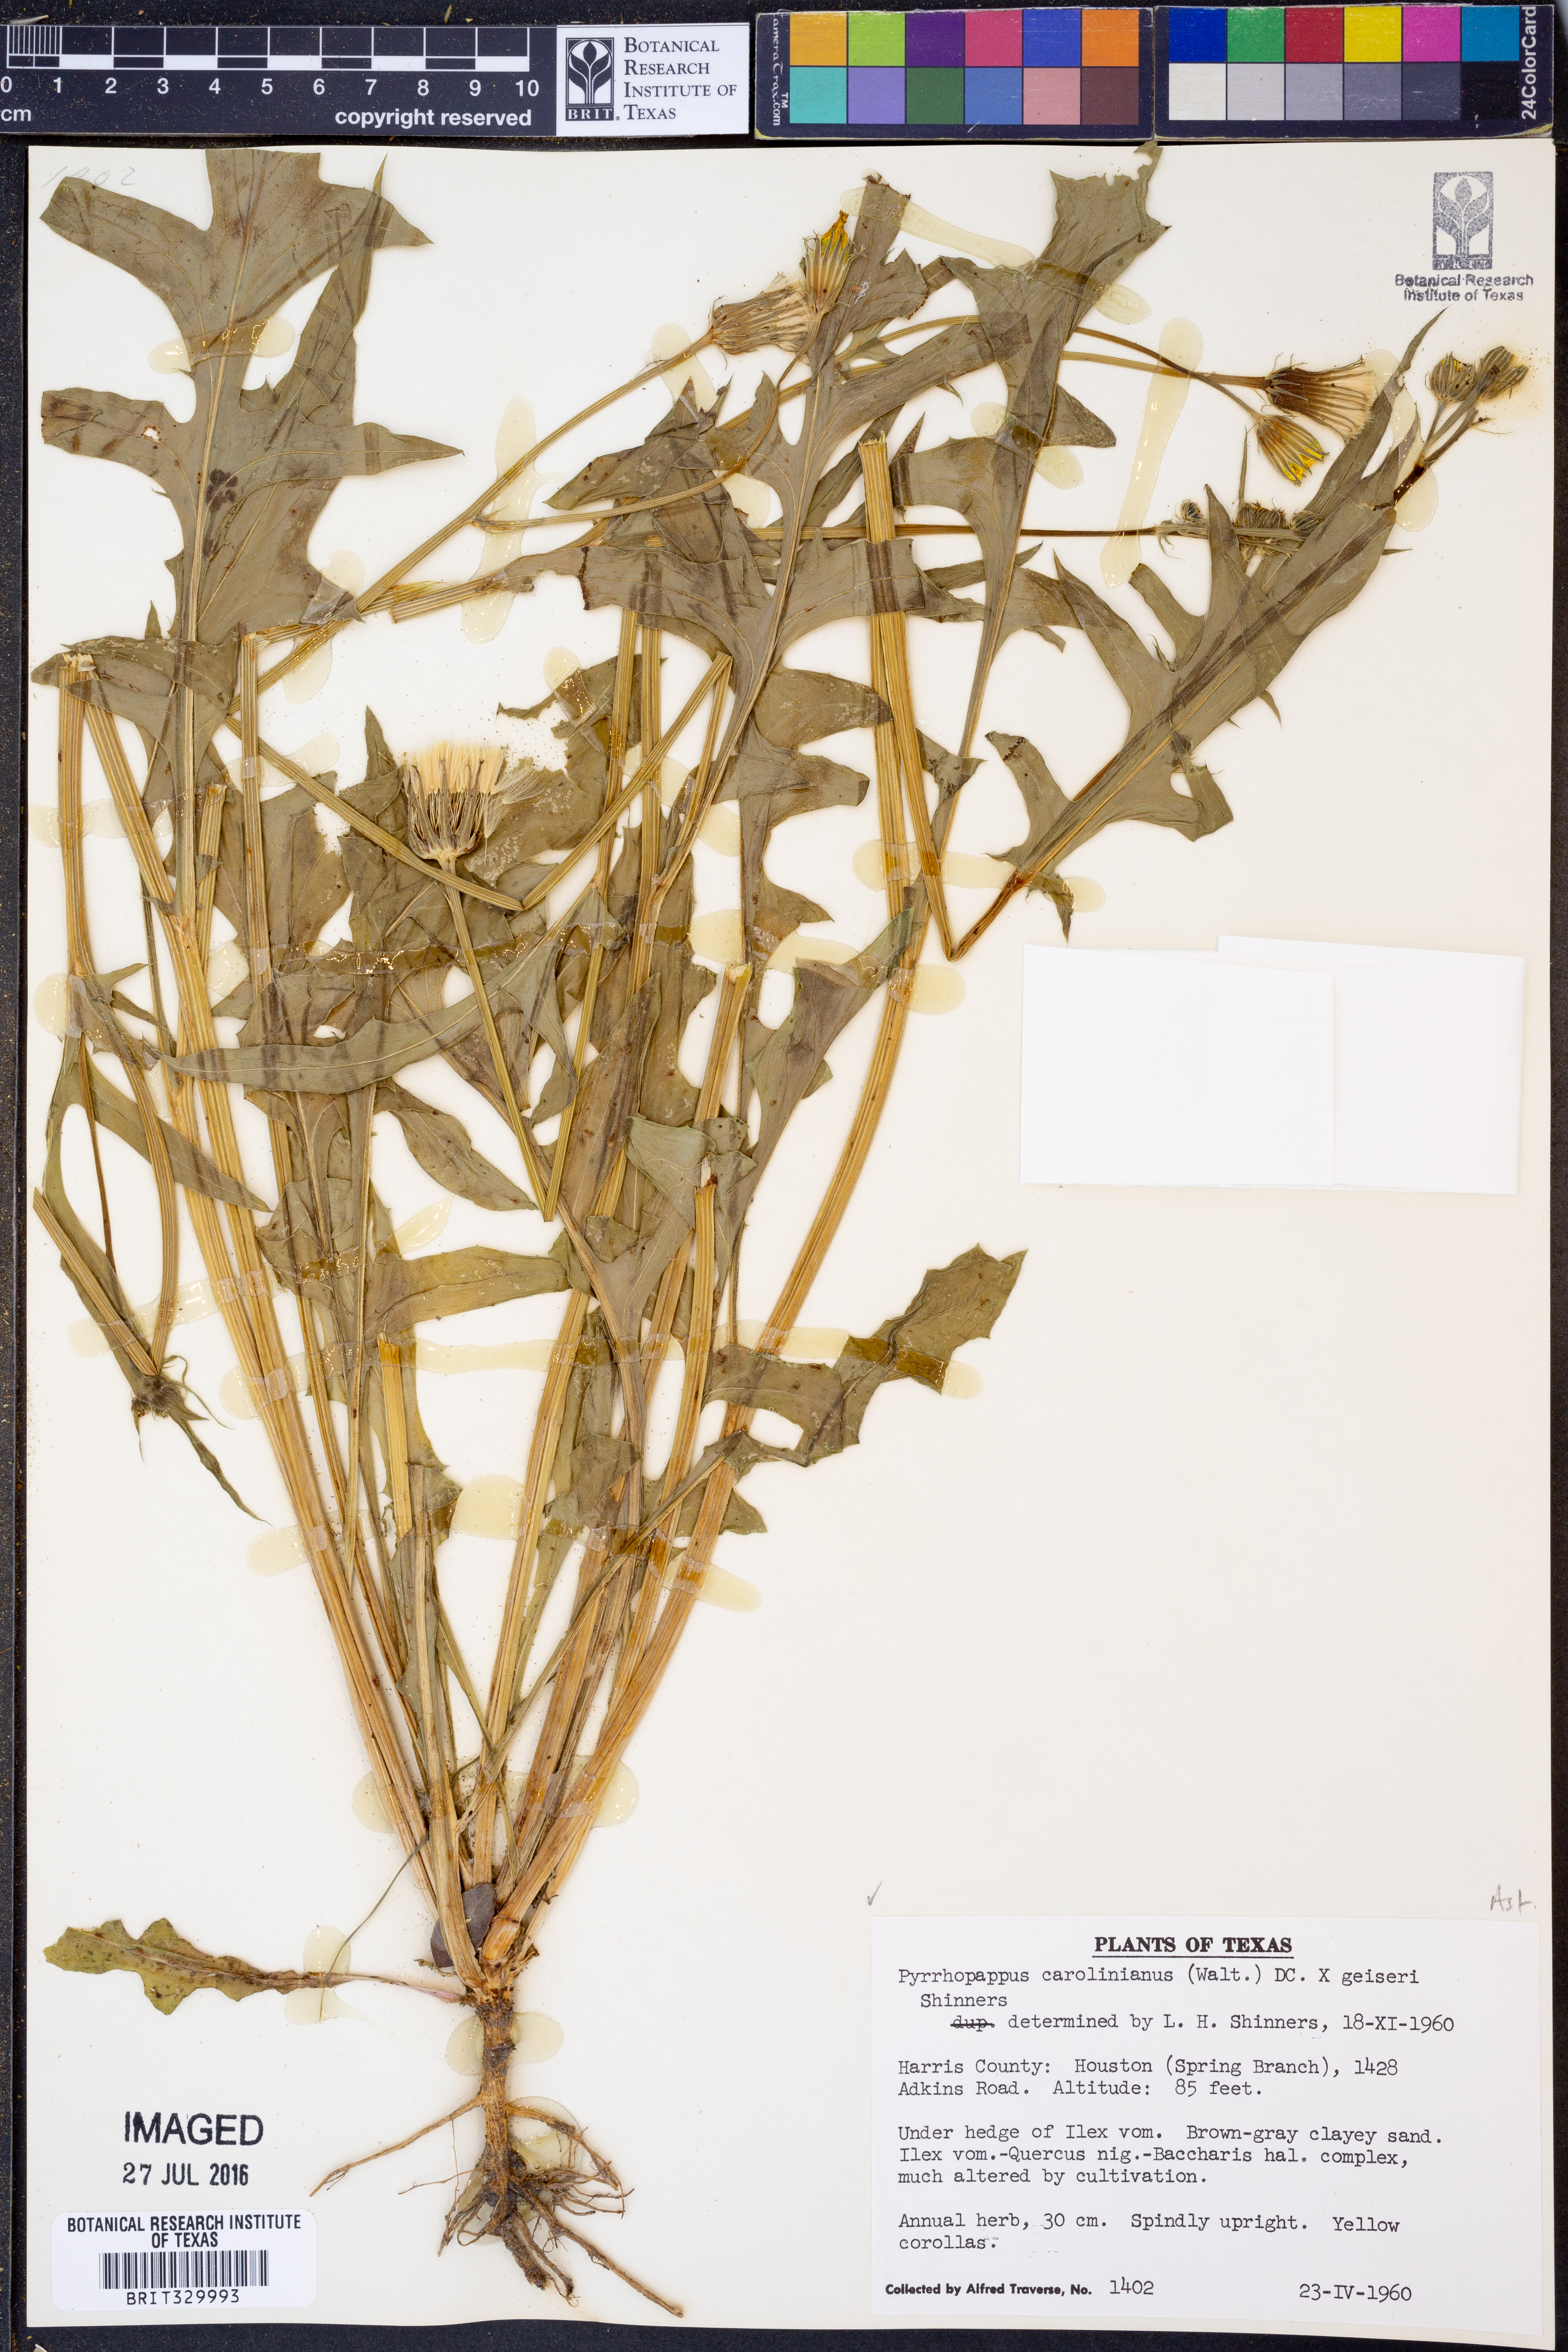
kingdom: Plantae
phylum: Tracheophyta
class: Magnoliopsida
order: Asterales
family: Asteraceae
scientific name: Asteraceae
